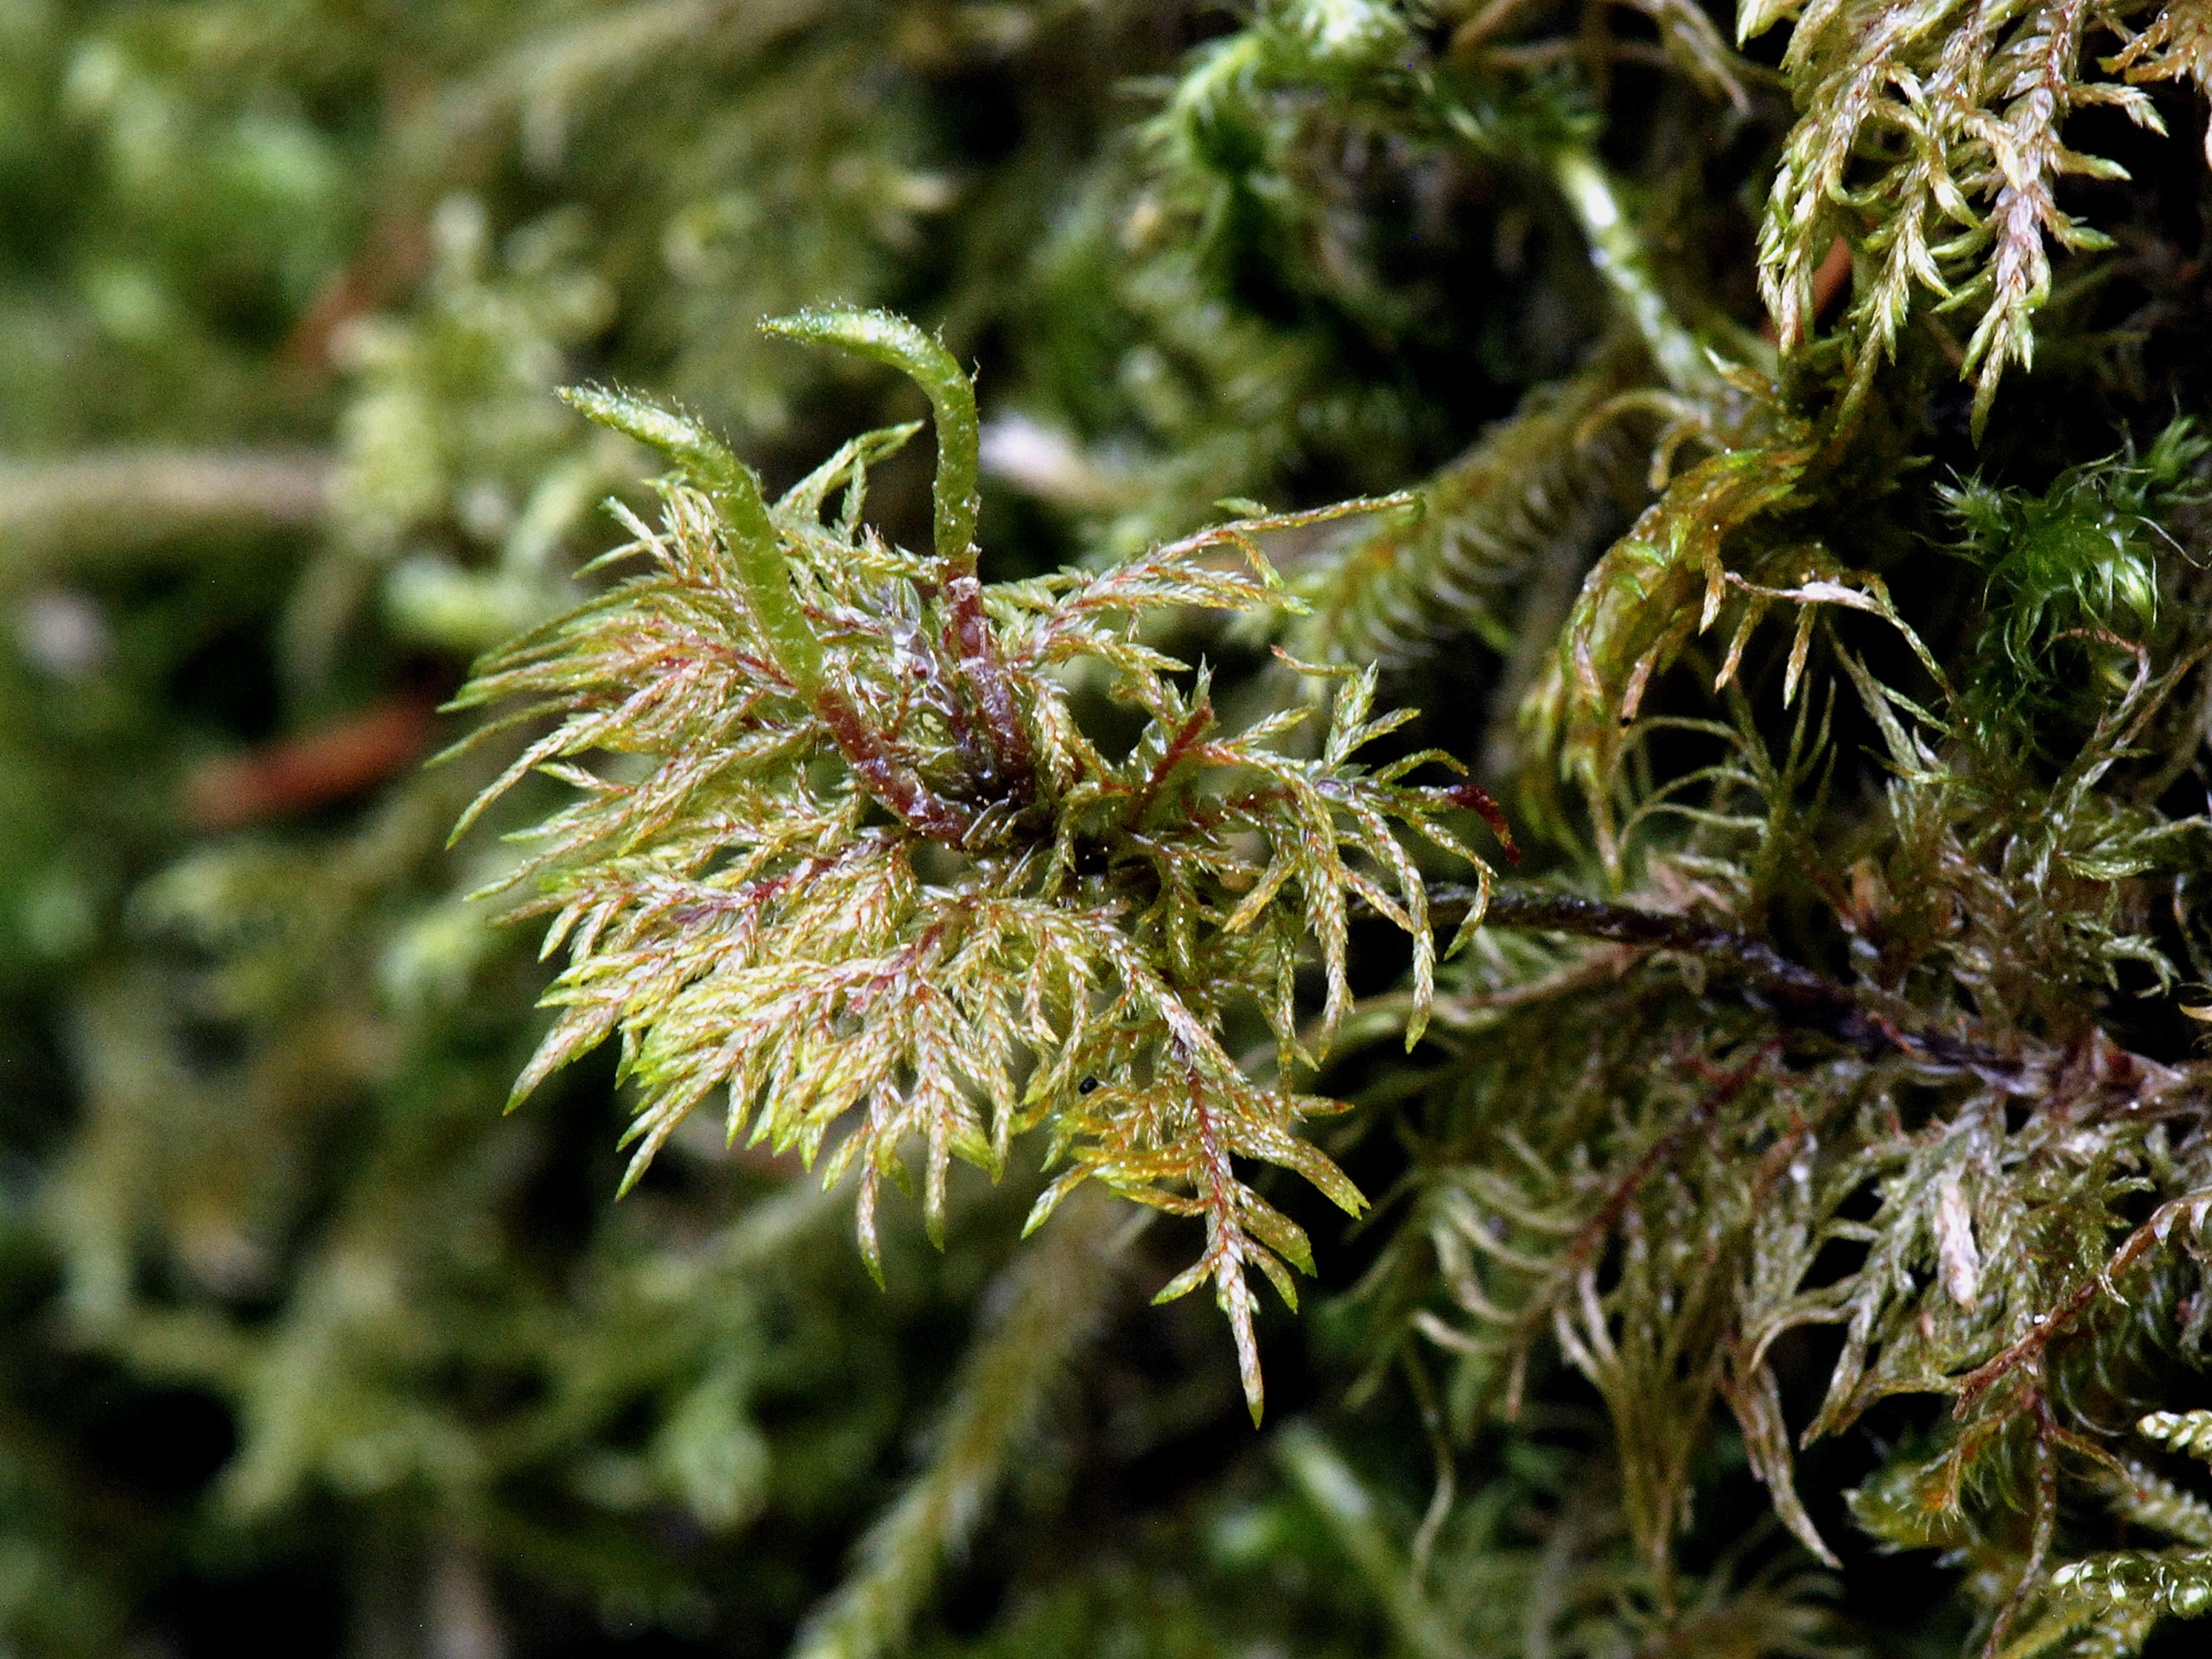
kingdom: Plantae
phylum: Bryophyta
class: Bryopsida
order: Hypnales
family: Hylocomiaceae
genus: Hylocomium
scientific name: Hylocomium splendens
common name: Almindelig etagemos
